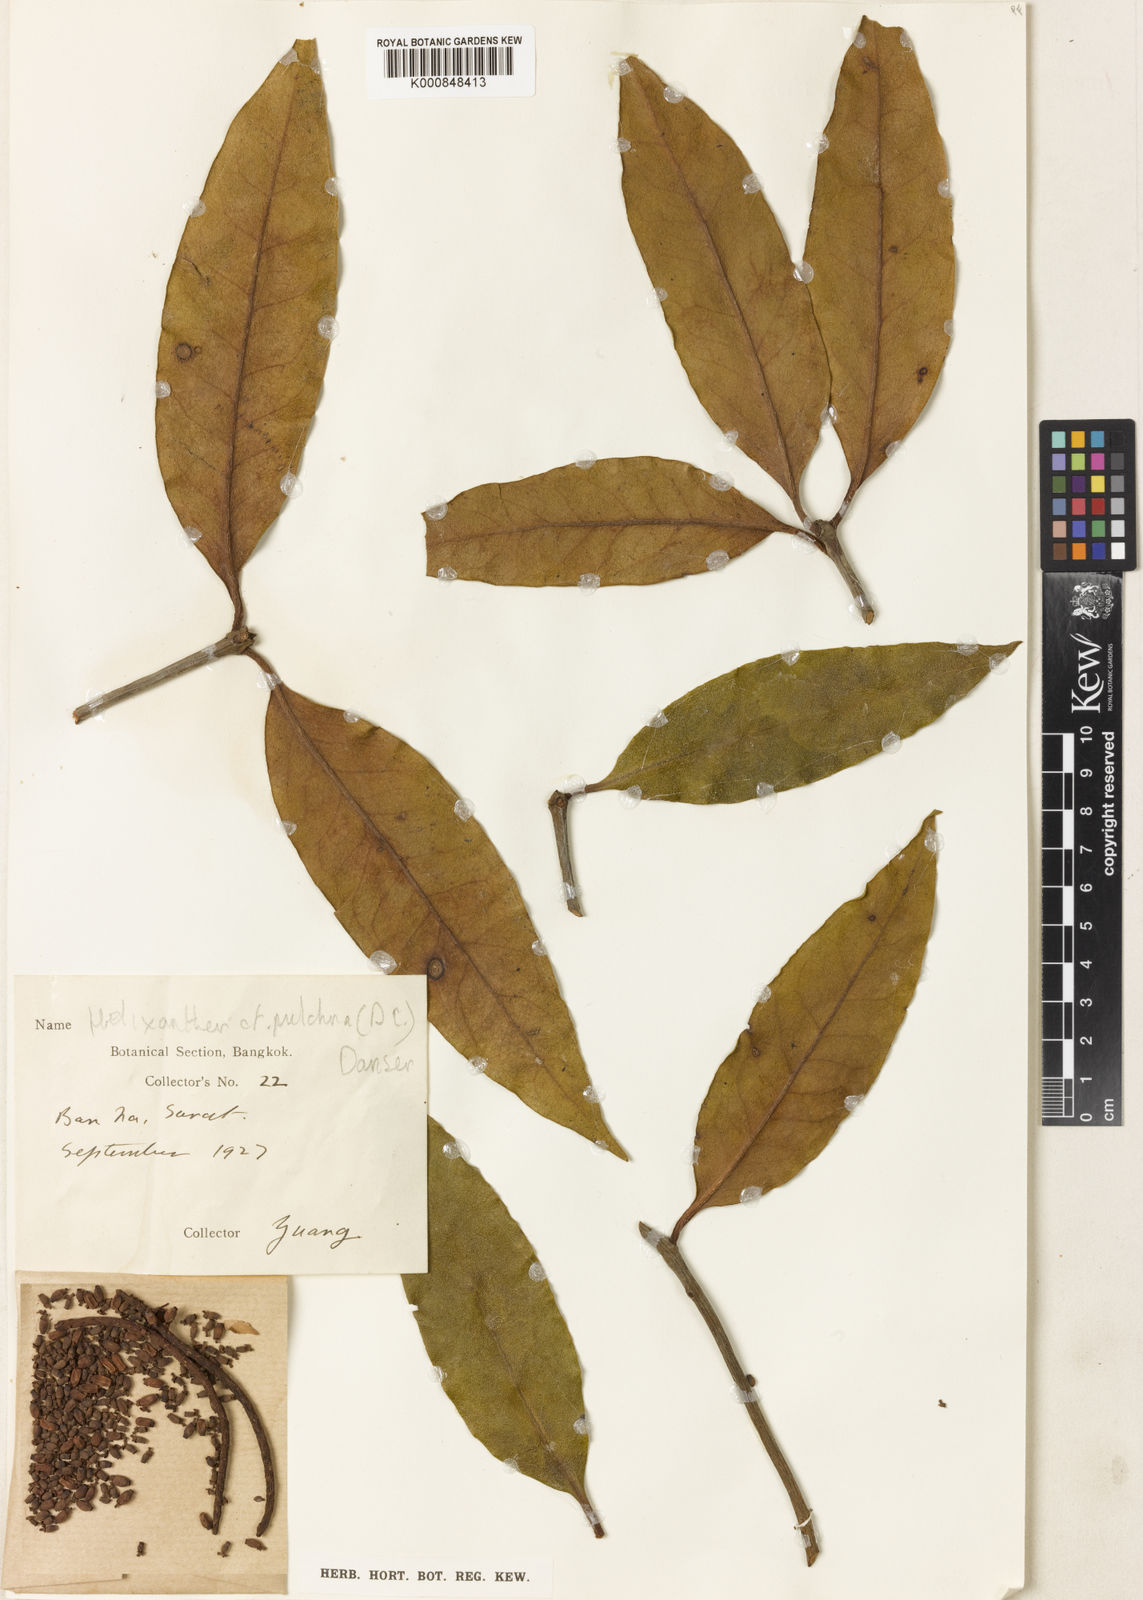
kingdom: Plantae
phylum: Tracheophyta
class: Magnoliopsida
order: Santalales
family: Loranthaceae
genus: Helixanthera
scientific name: Helixanthera pulchra
